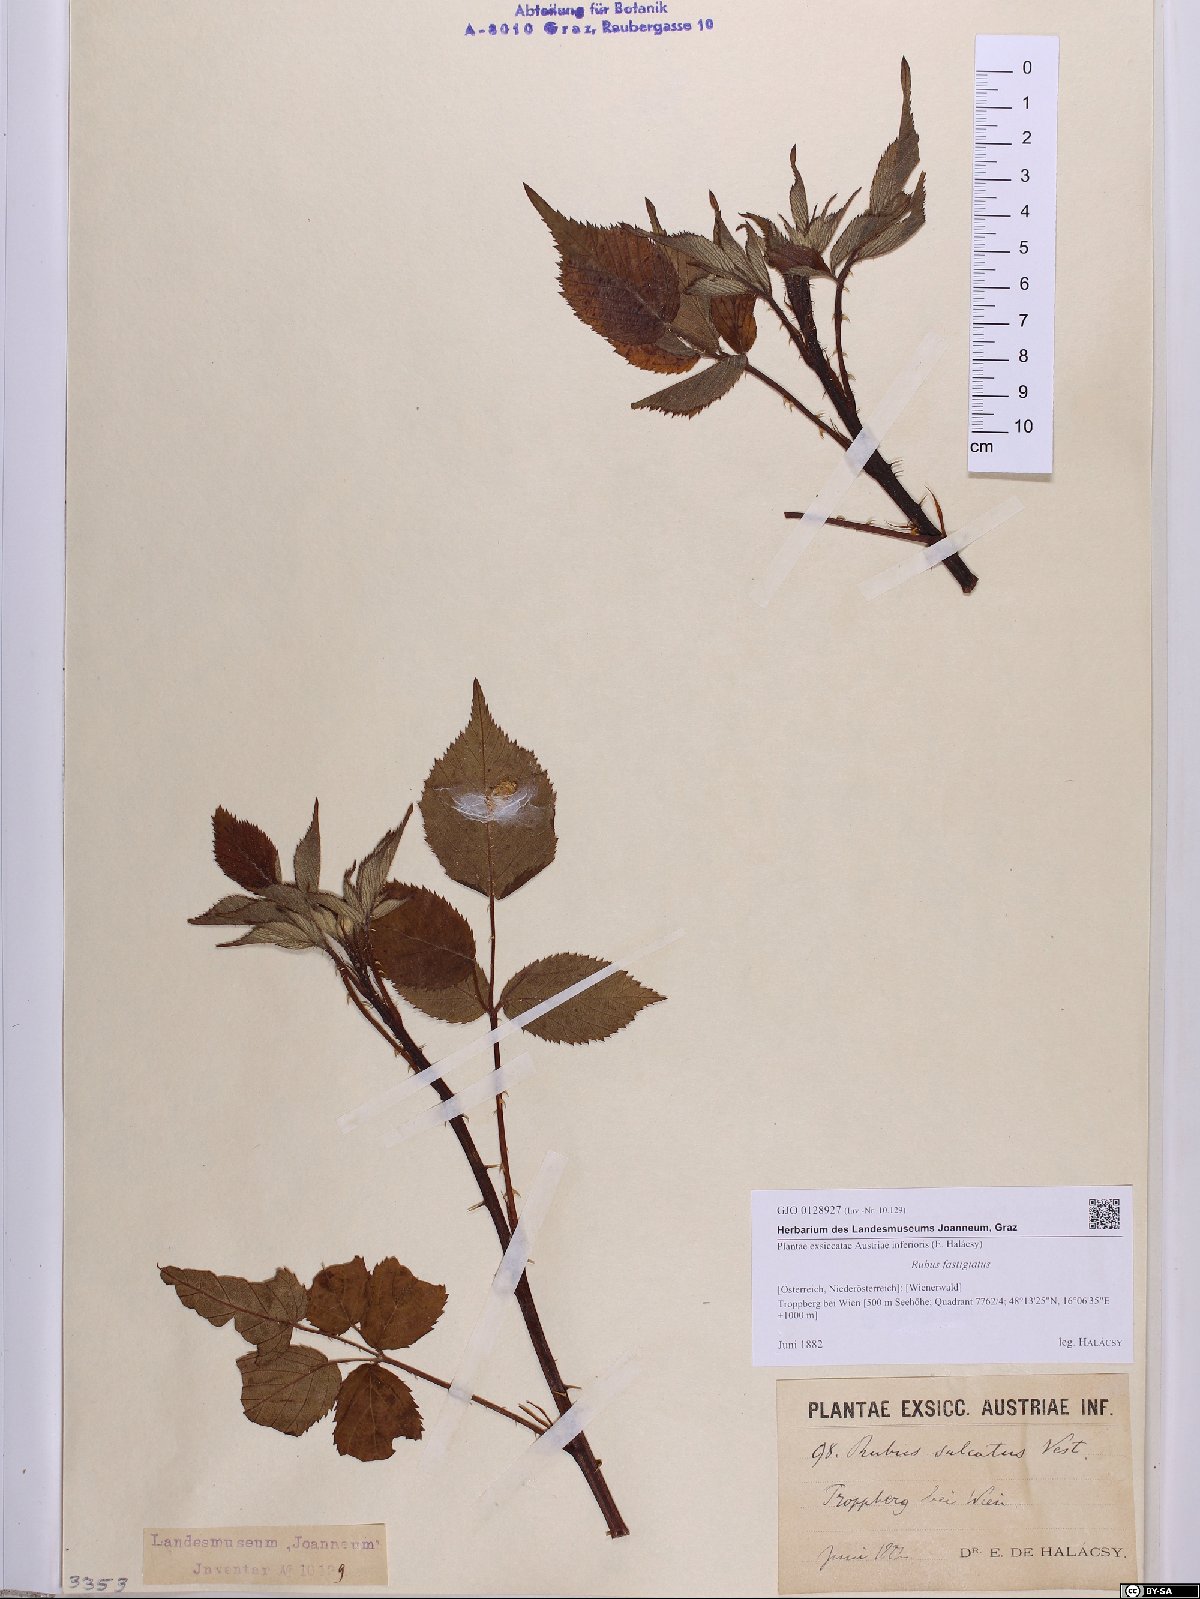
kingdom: Plantae
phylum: Tracheophyta
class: Magnoliopsida
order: Rosales
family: Rosaceae
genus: Rubus
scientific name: Rubus polonicus
